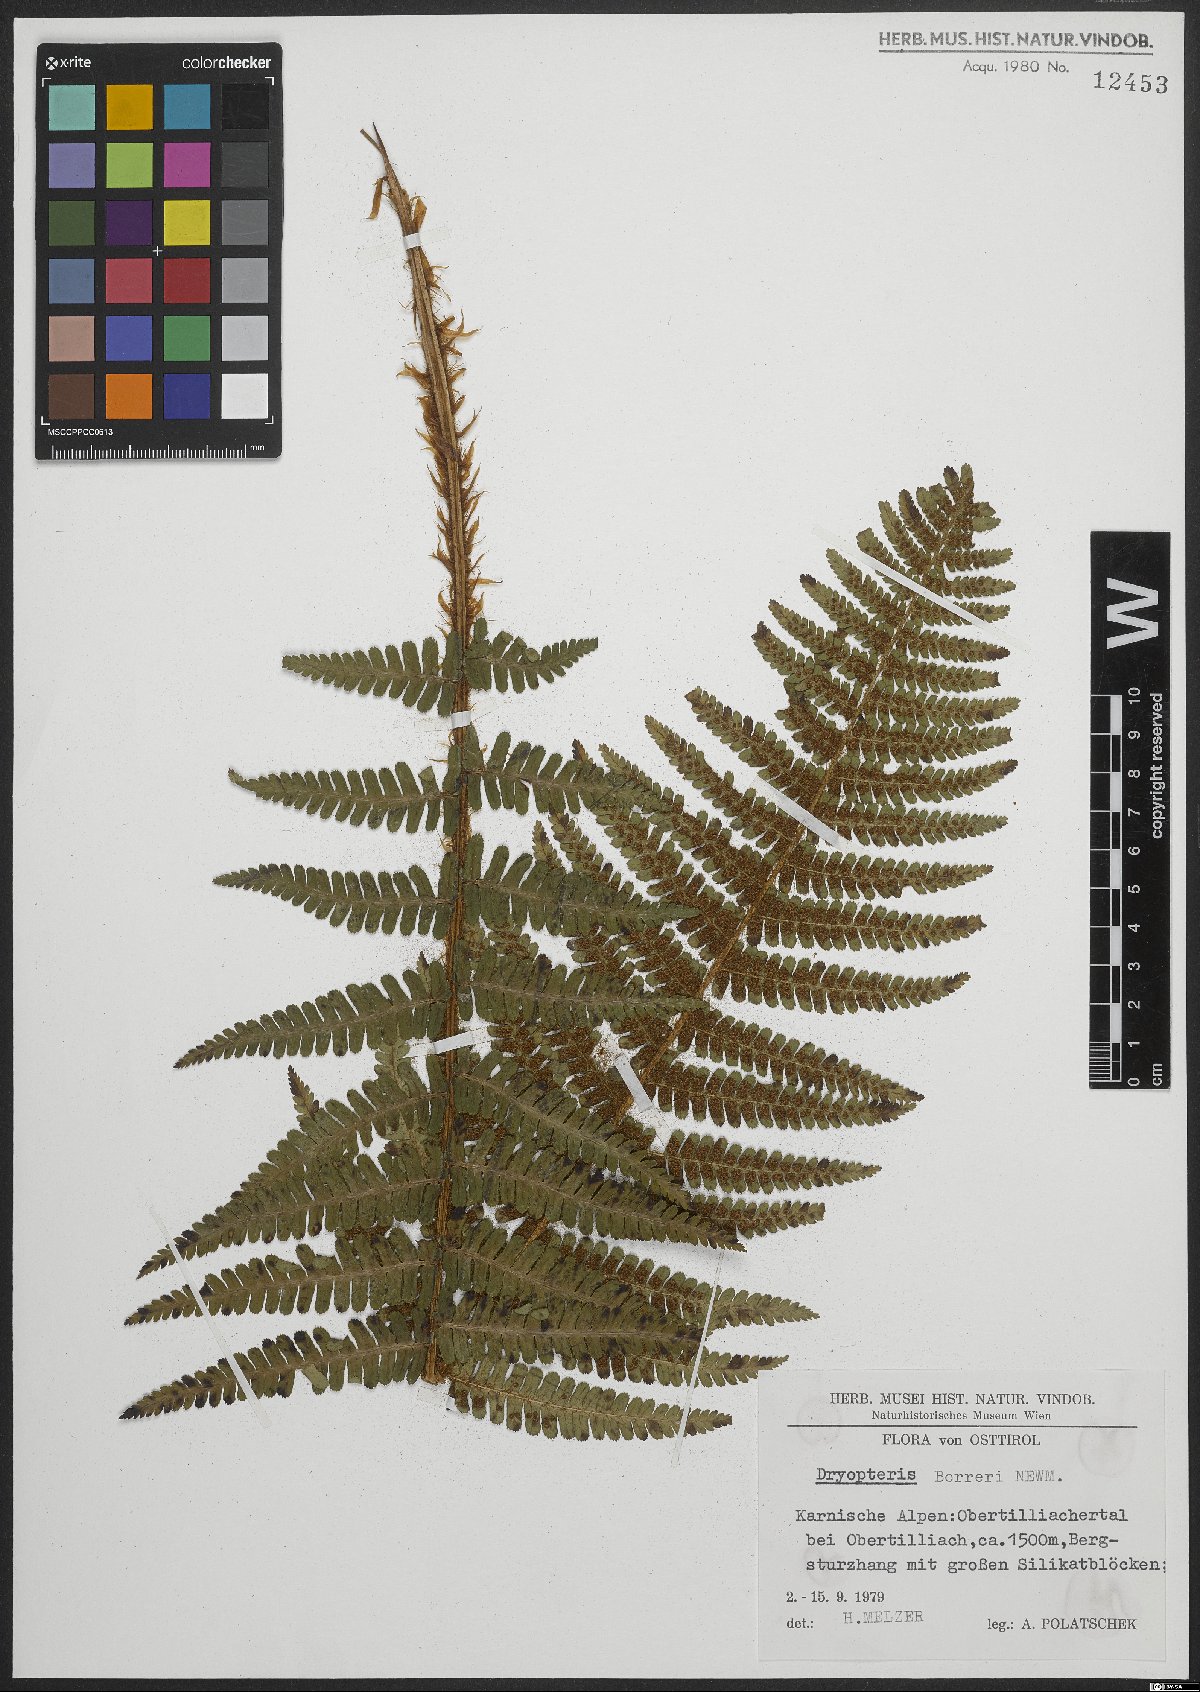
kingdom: Plantae
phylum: Tracheophyta
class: Polypodiopsida
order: Polypodiales
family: Dryopteridaceae
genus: Dryopteris
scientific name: Dryopteris cambrensis
